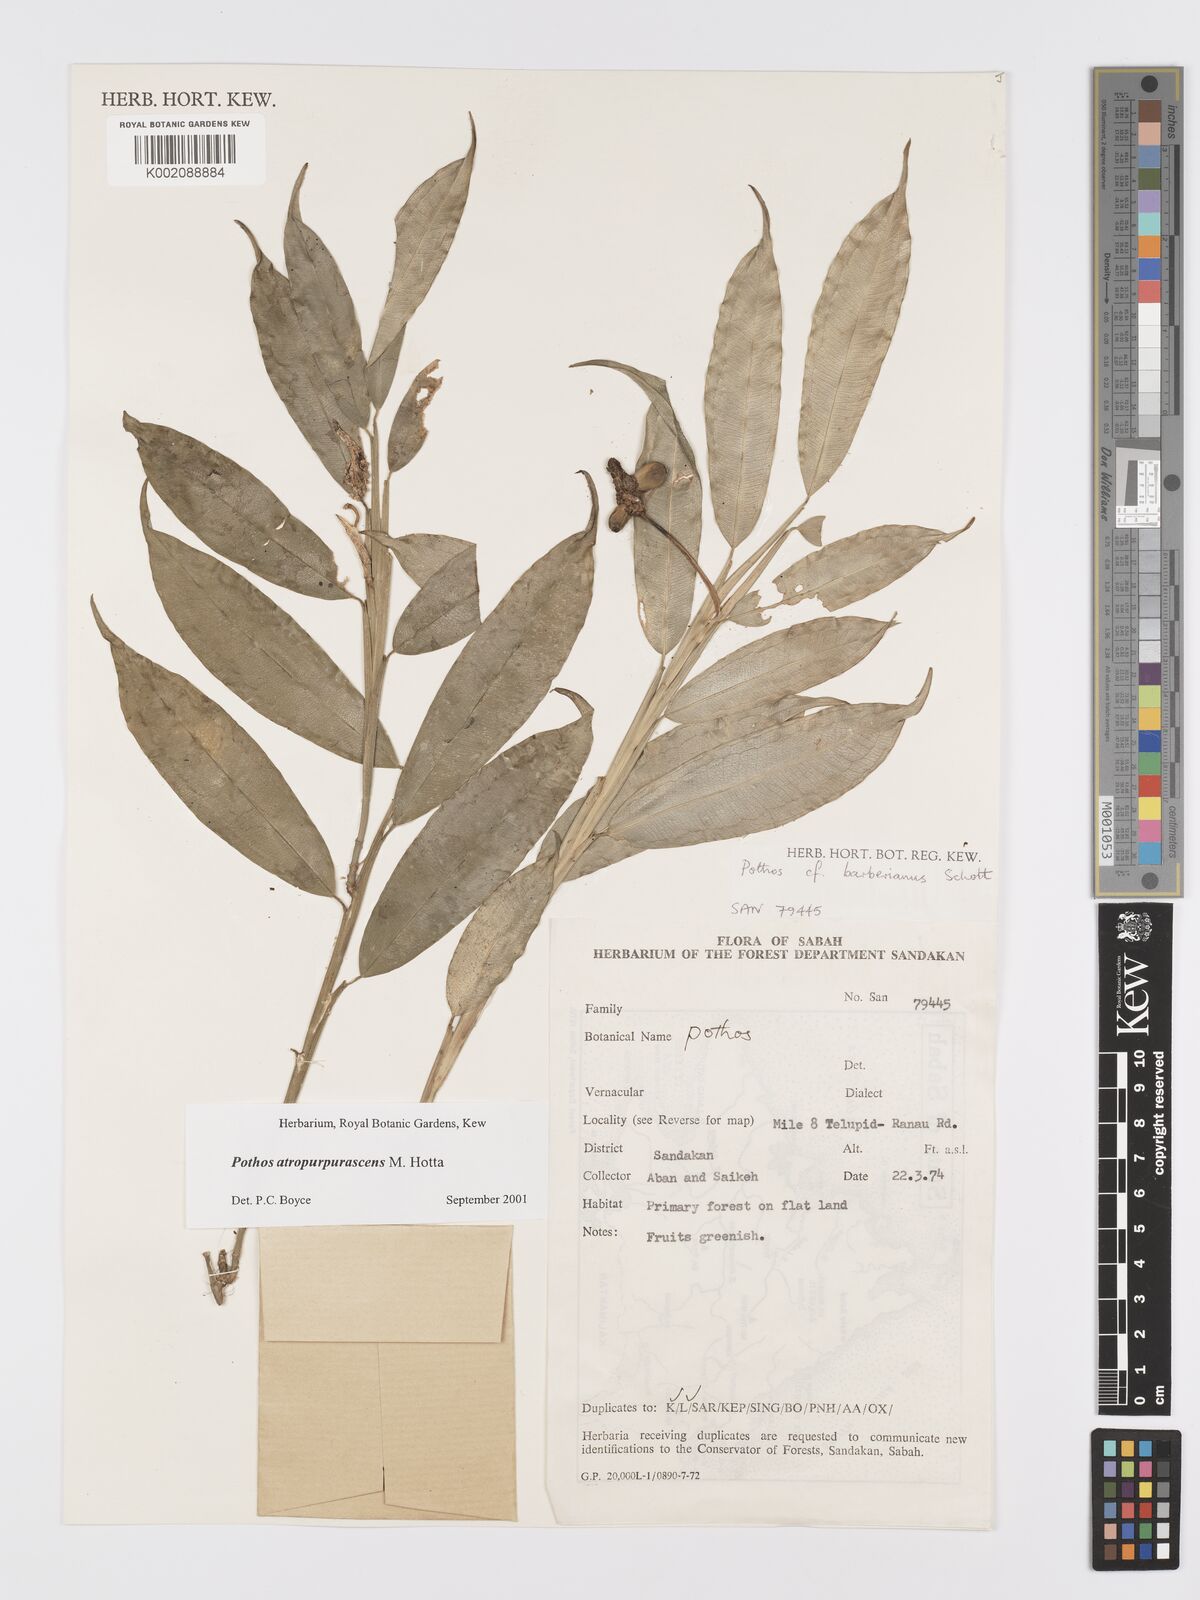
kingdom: Plantae
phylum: Tracheophyta
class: Liliopsida
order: Alismatales
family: Araceae
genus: Pothos
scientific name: Pothos atropurpurascens
